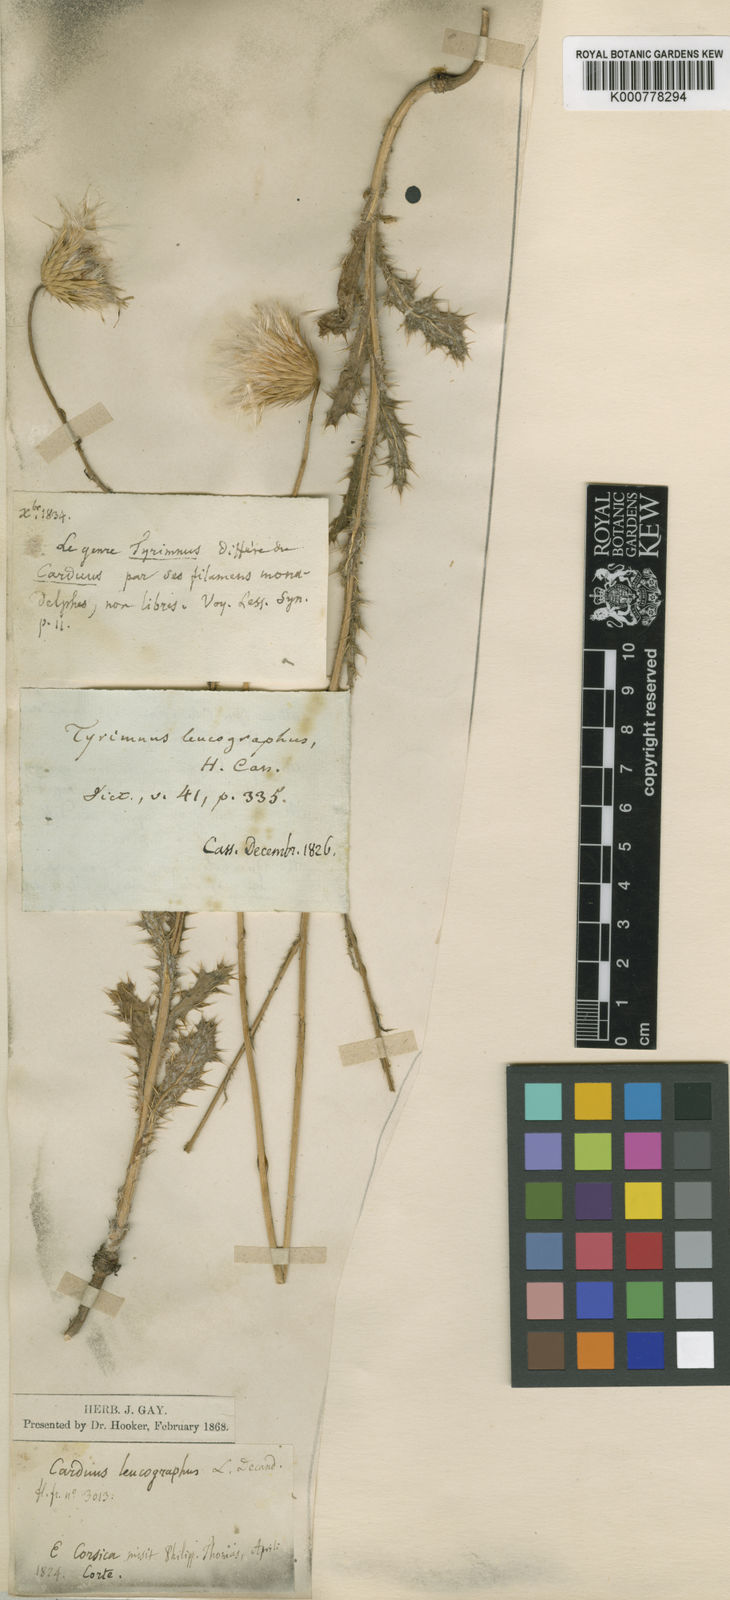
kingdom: Plantae
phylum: Tracheophyta
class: Magnoliopsida
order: Asterales
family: Asteraceae
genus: Tyrimnus
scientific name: Tyrimnus leucographus
